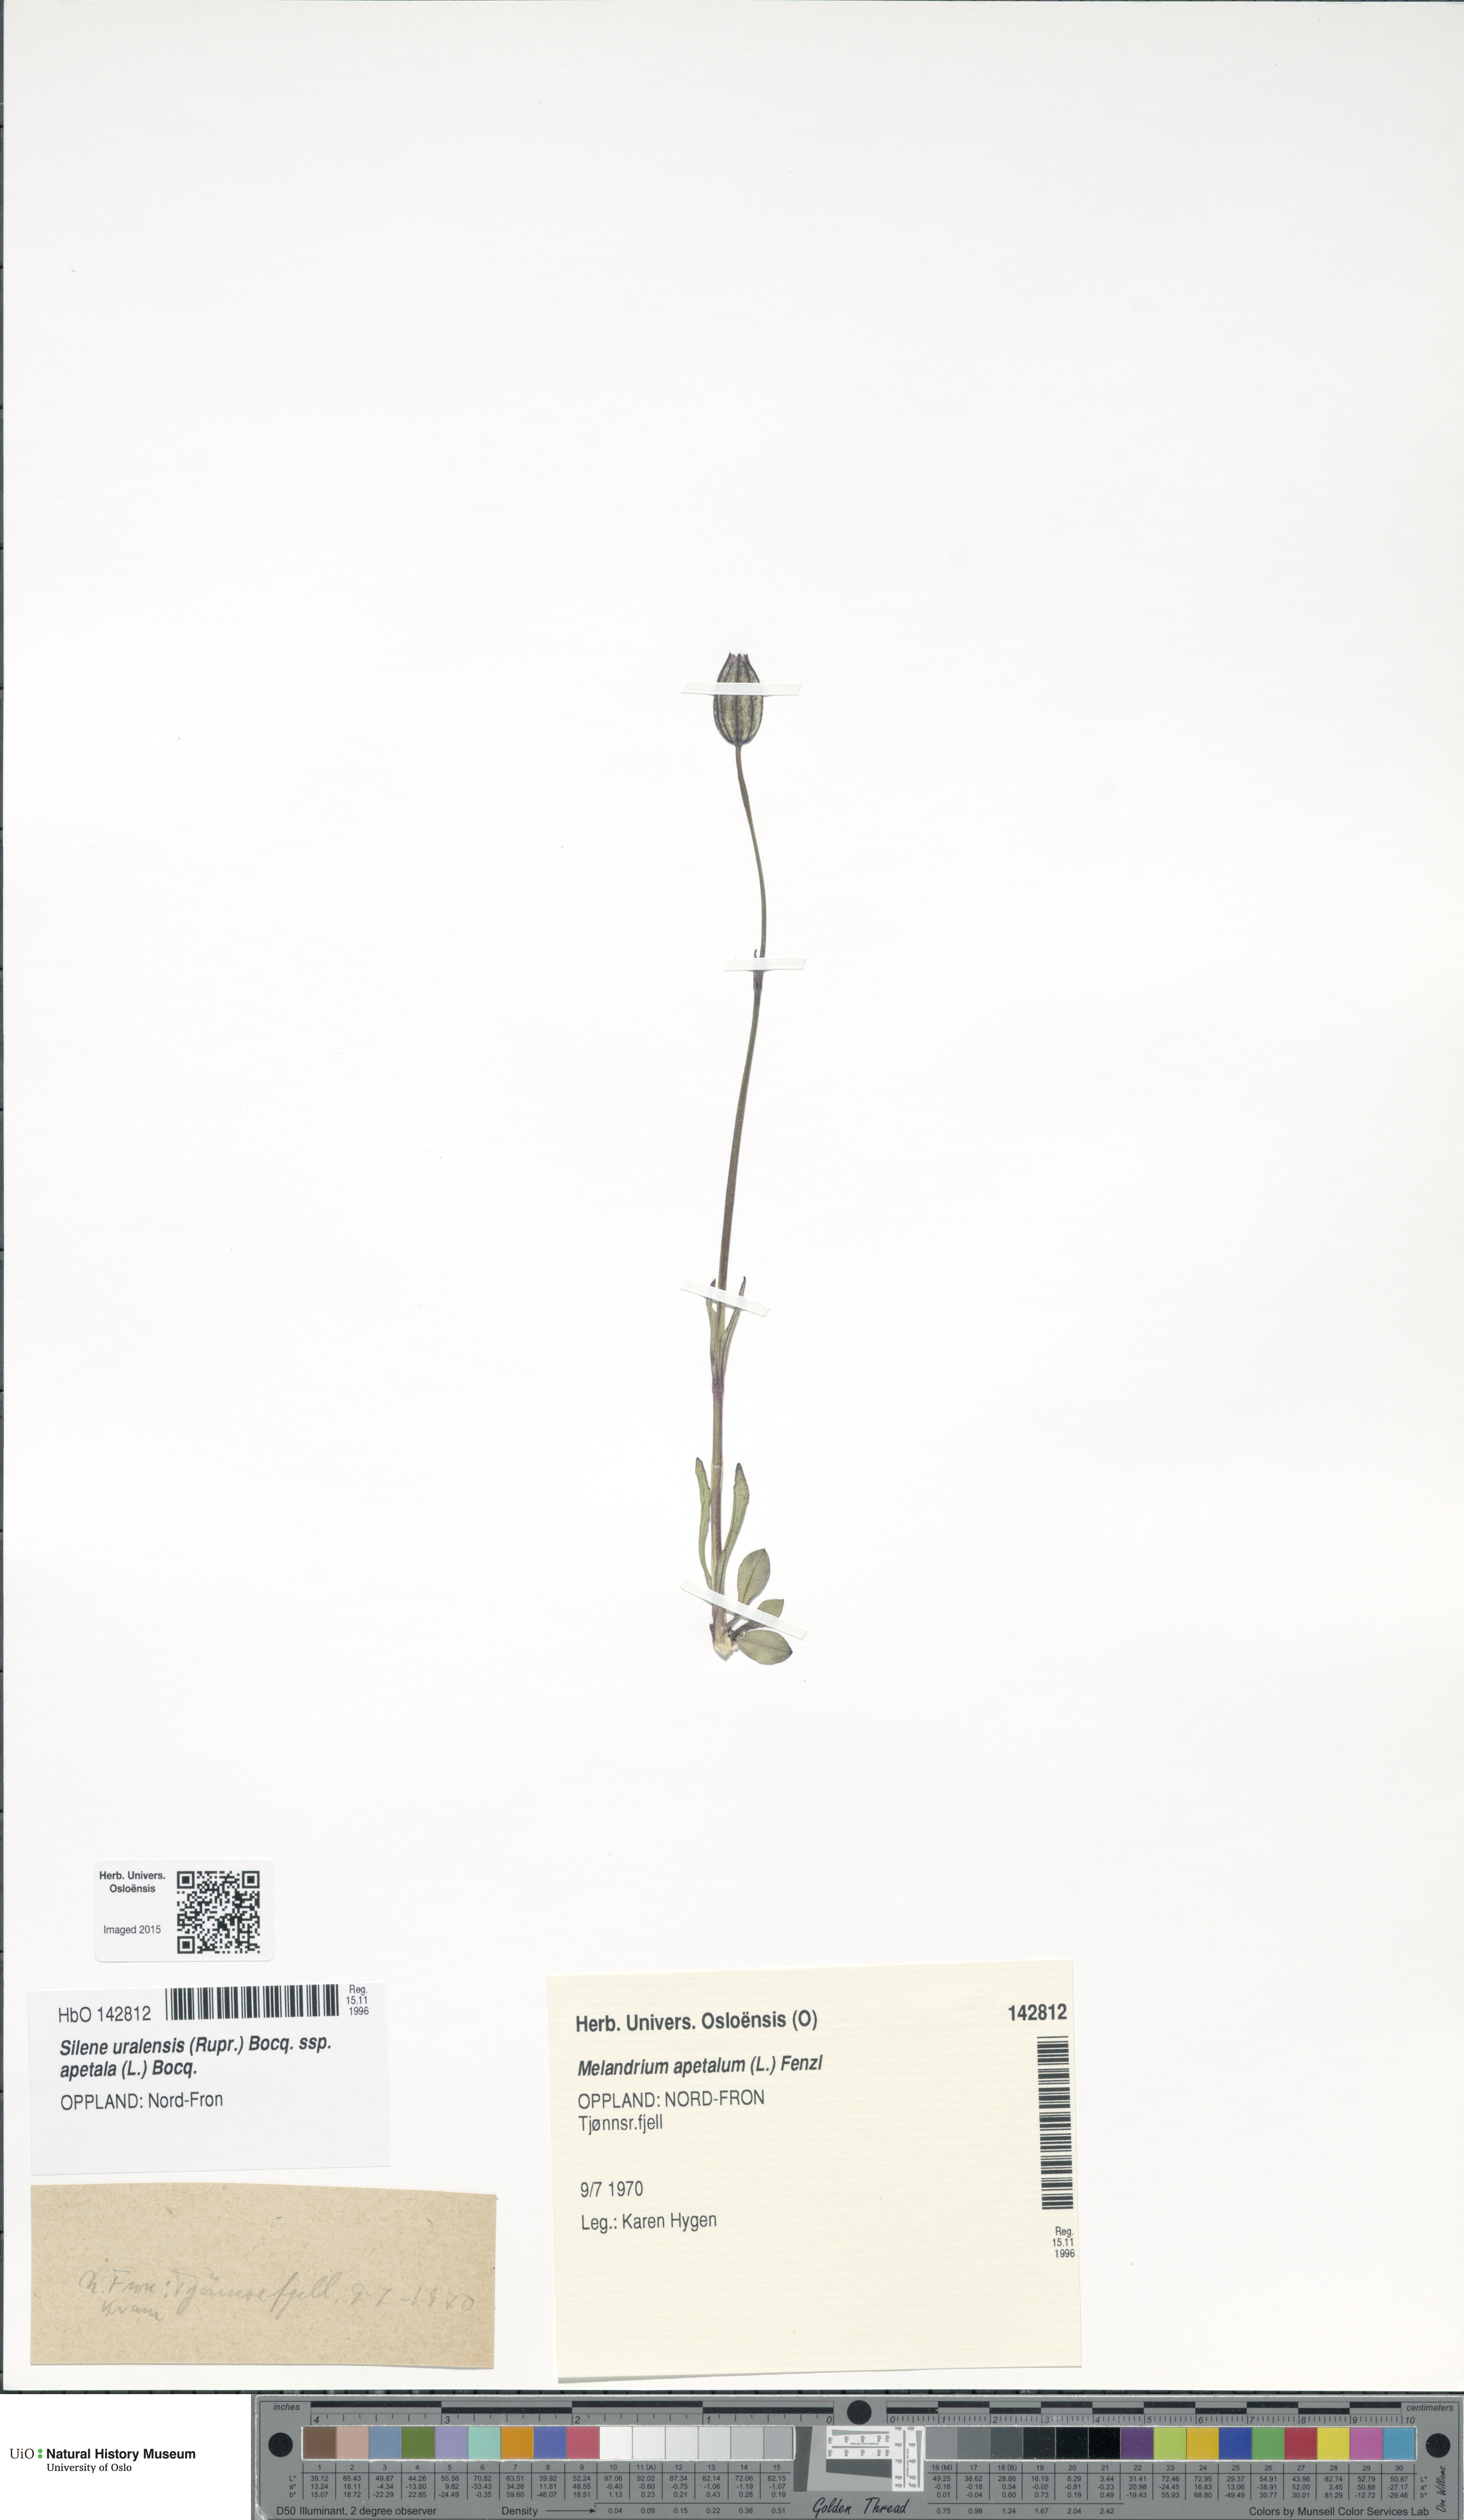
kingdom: Plantae
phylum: Tracheophyta
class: Magnoliopsida
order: Caryophyllales
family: Caryophyllaceae
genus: Silene
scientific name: Silene wahlbergella
